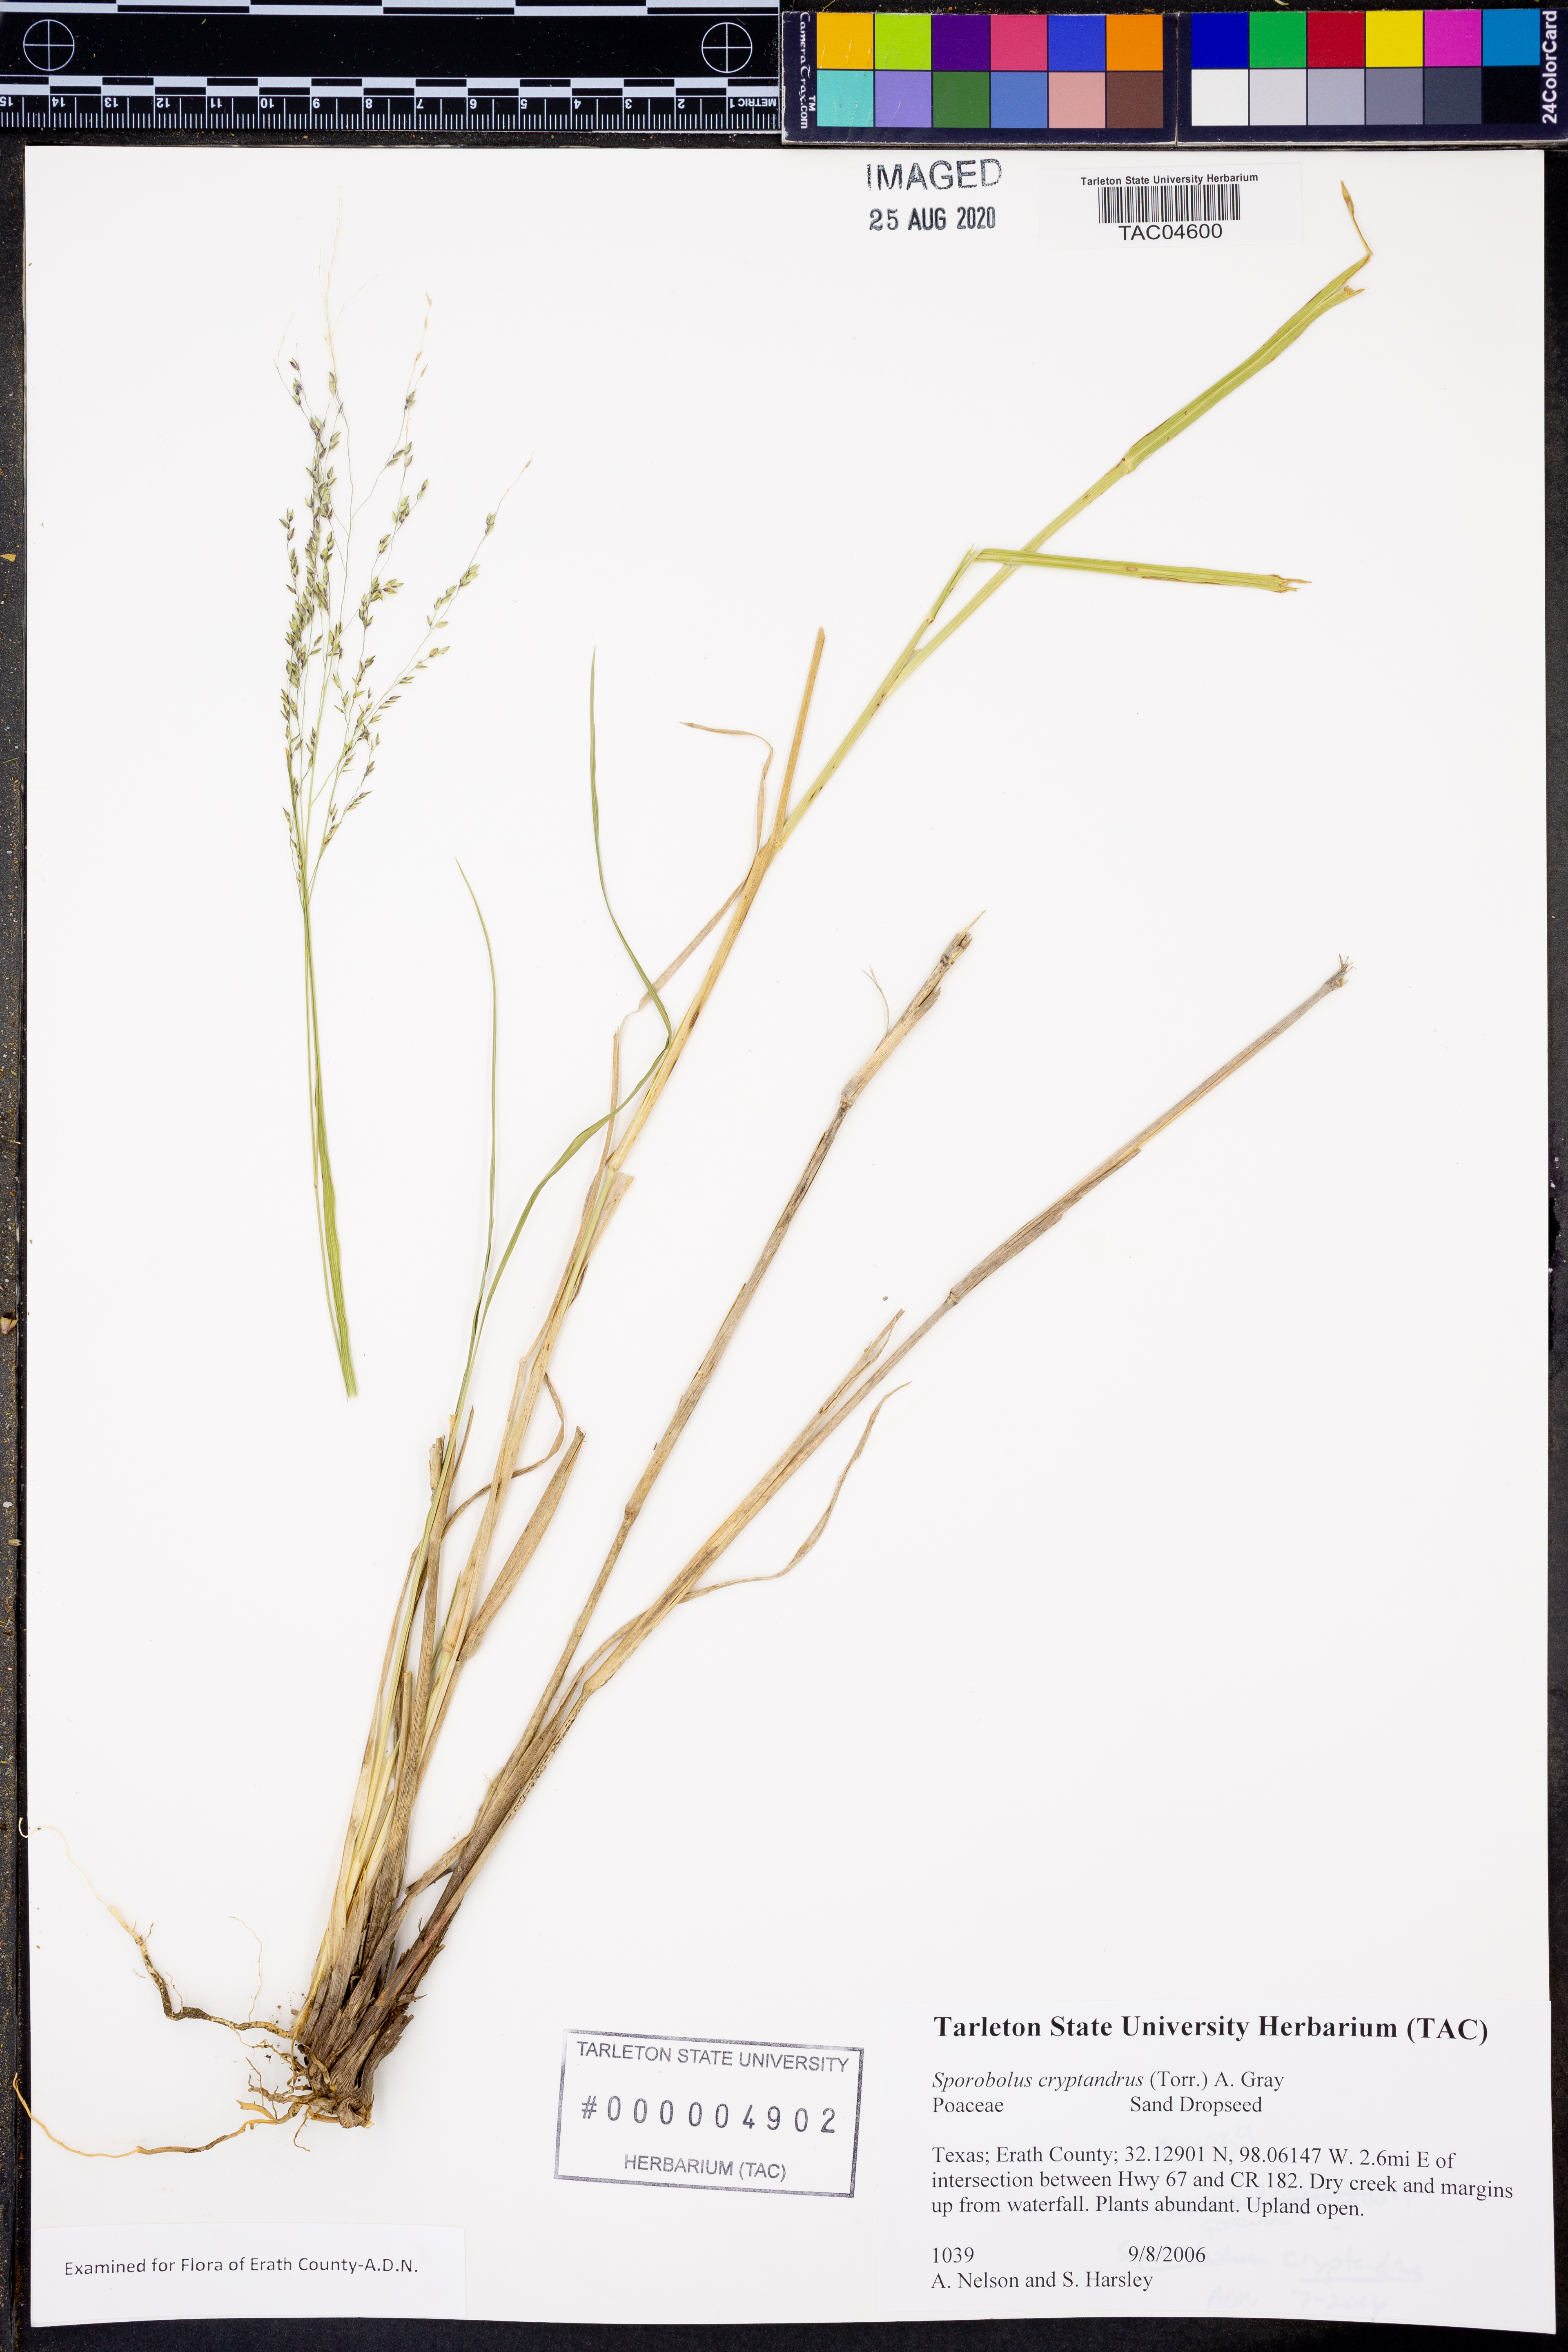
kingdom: Plantae
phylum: Tracheophyta
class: Liliopsida
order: Poales
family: Poaceae
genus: Sporobolus
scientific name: Sporobolus cryptandrus
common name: Sand dropseed
